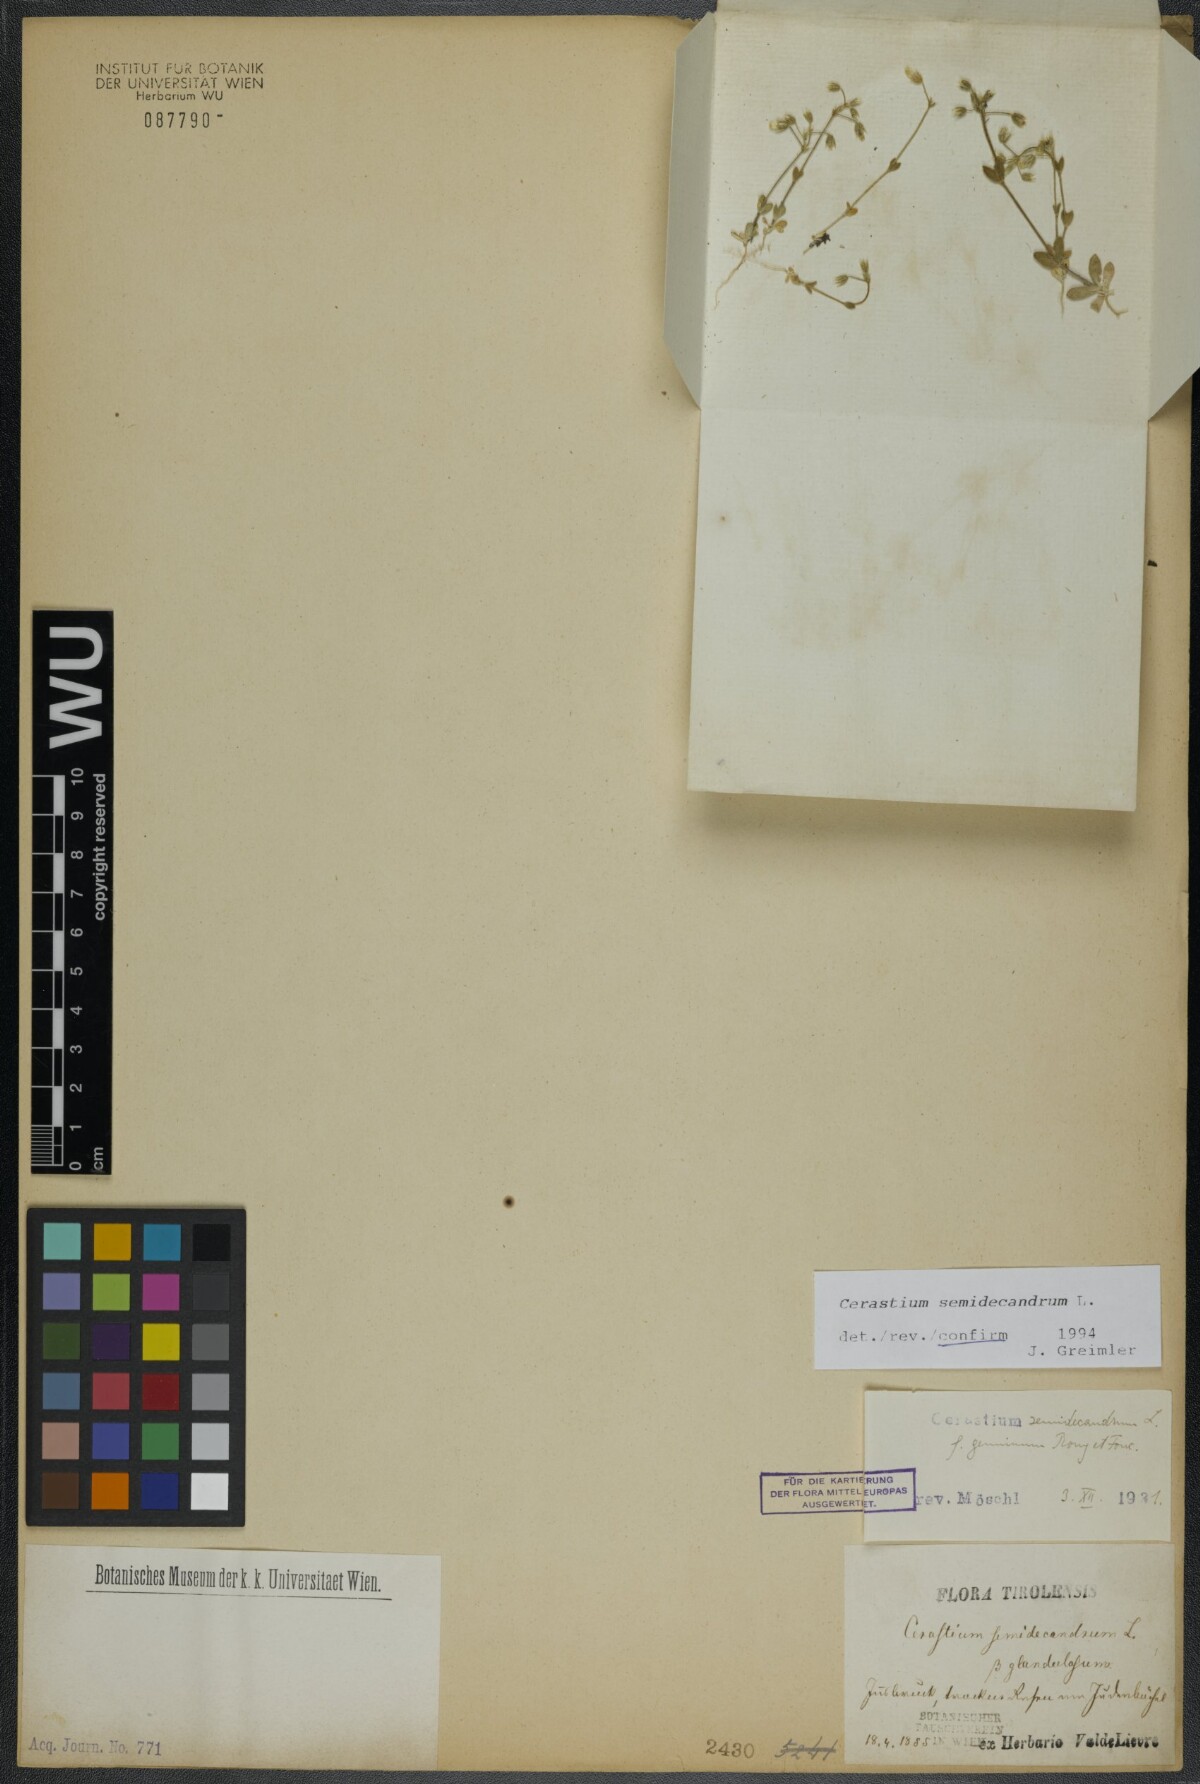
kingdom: Plantae
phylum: Tracheophyta
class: Magnoliopsida
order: Caryophyllales
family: Caryophyllaceae
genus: Cerastium
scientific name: Cerastium semidecandrum
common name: Little mouse-ear
